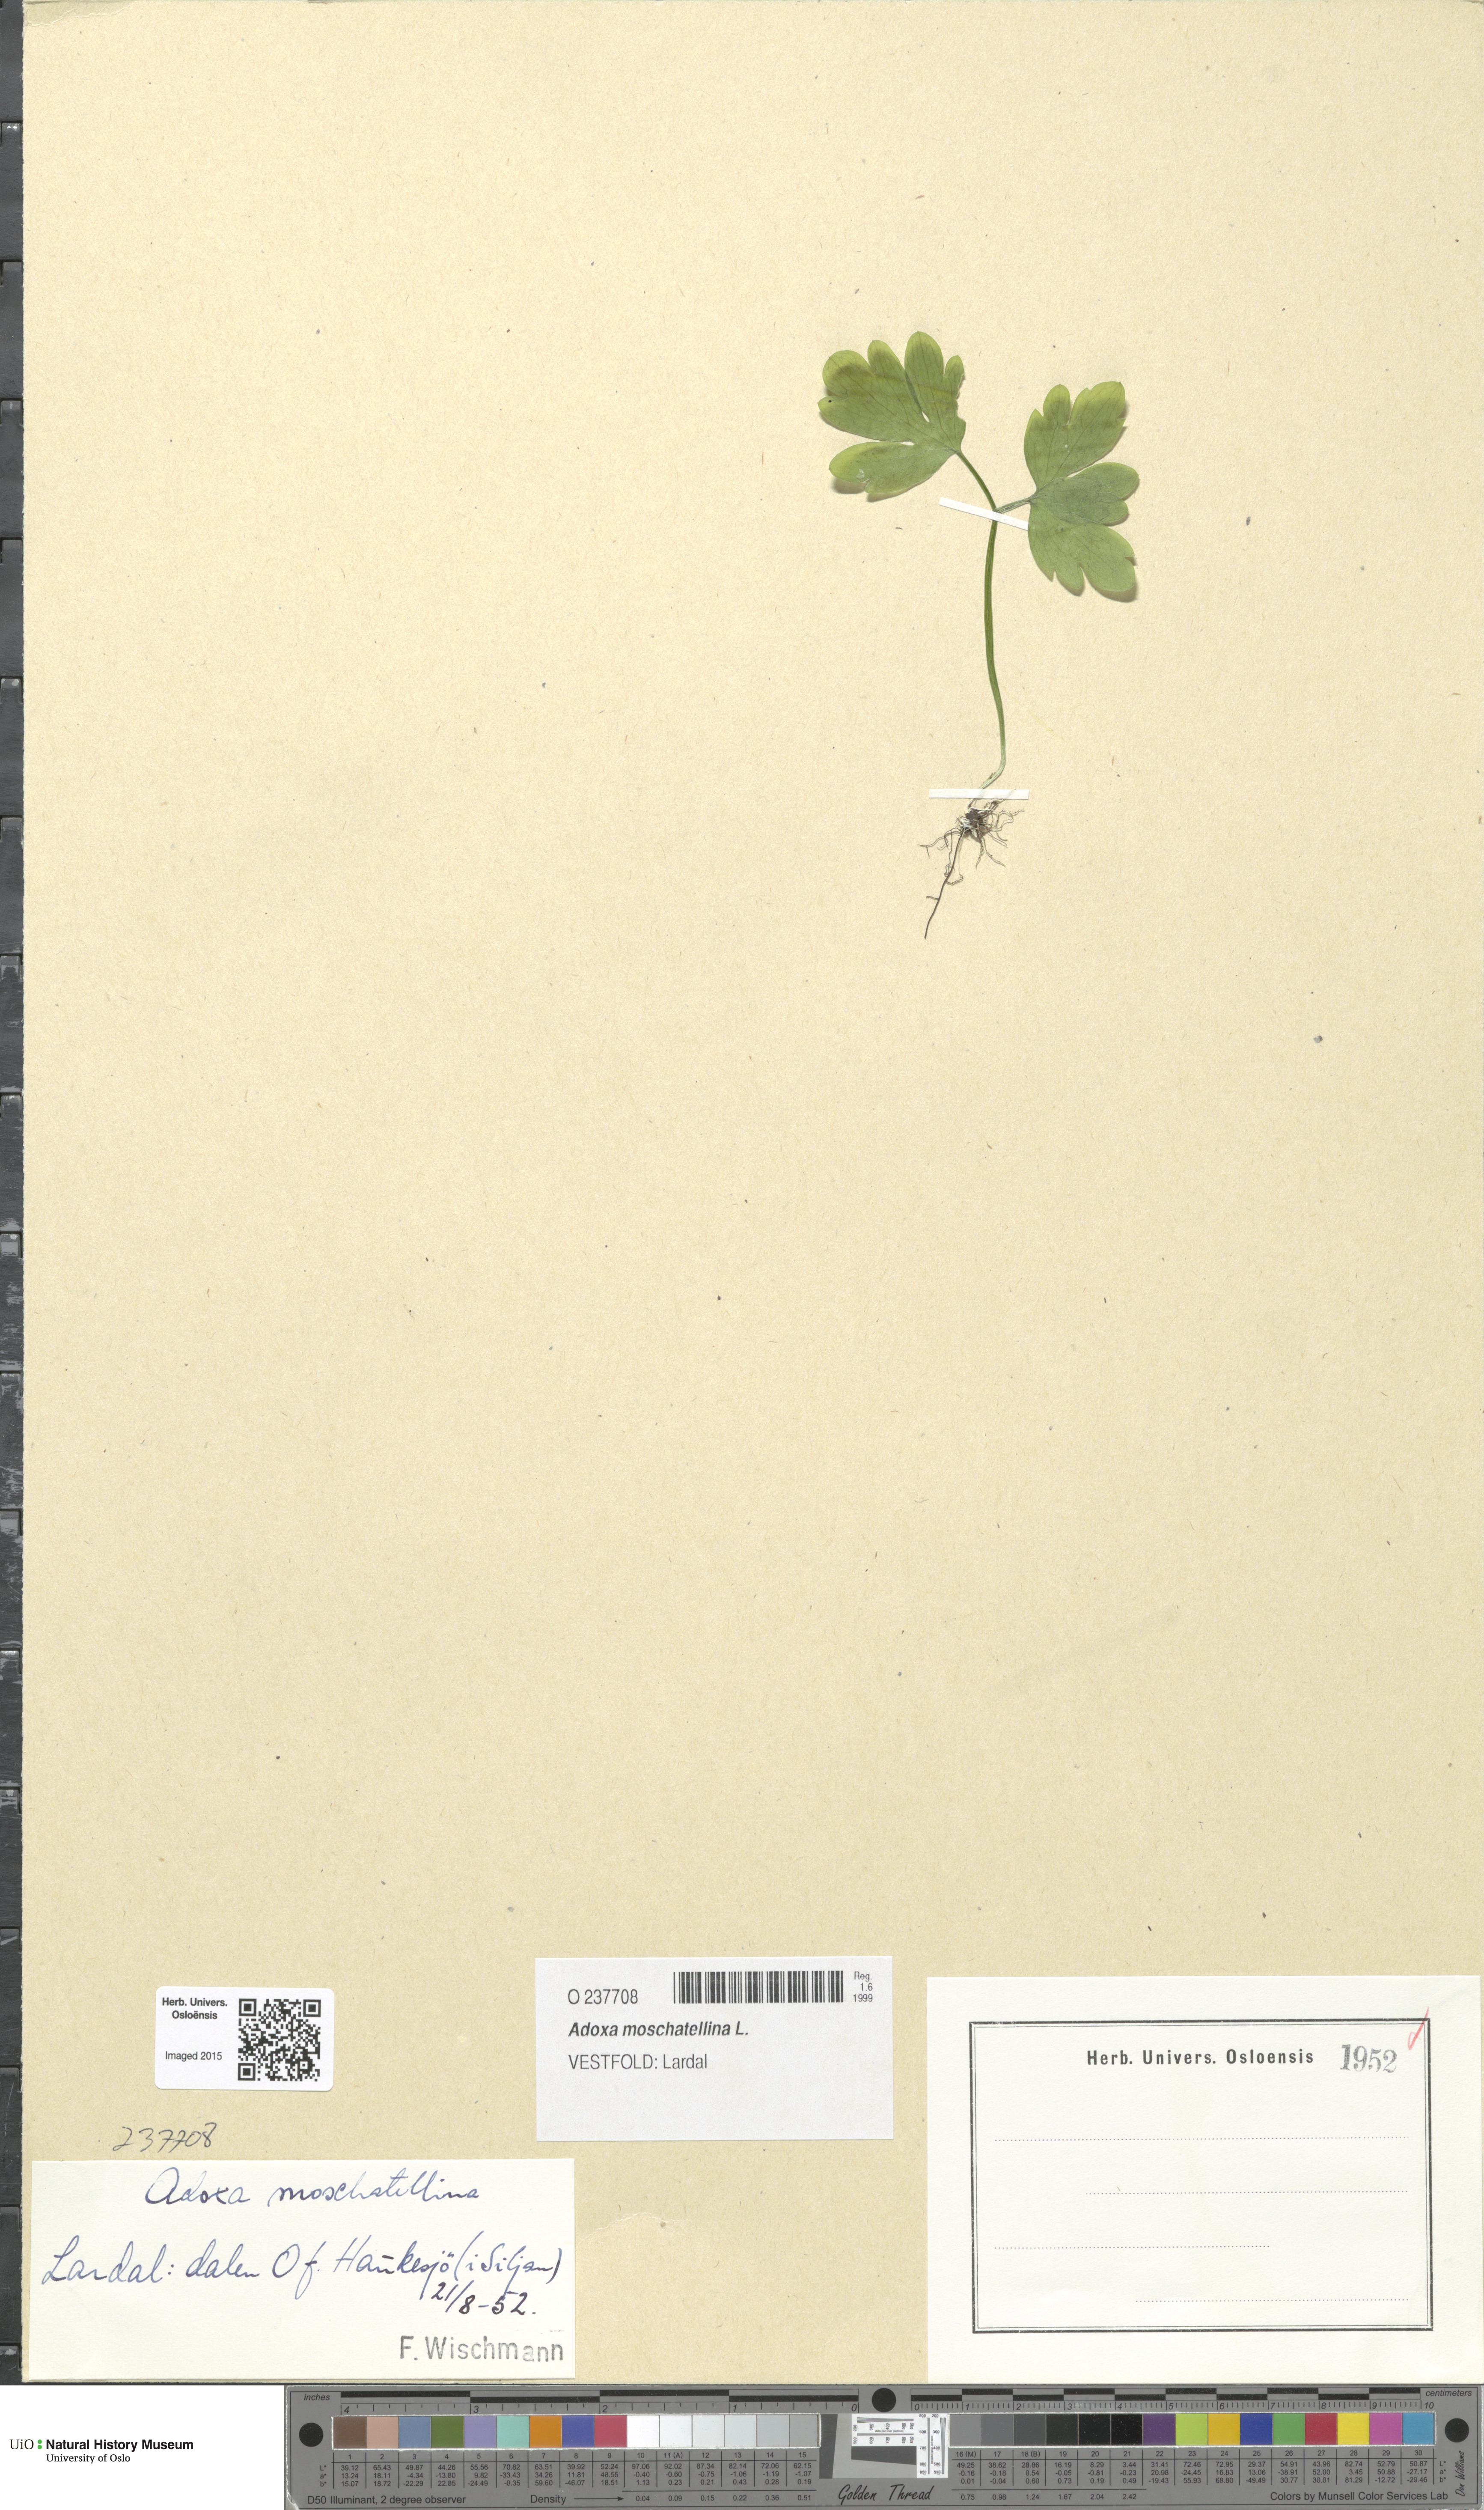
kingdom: Plantae
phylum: Tracheophyta
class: Magnoliopsida
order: Dipsacales
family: Viburnaceae
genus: Adoxa
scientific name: Adoxa moschatellina
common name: Moschatel
